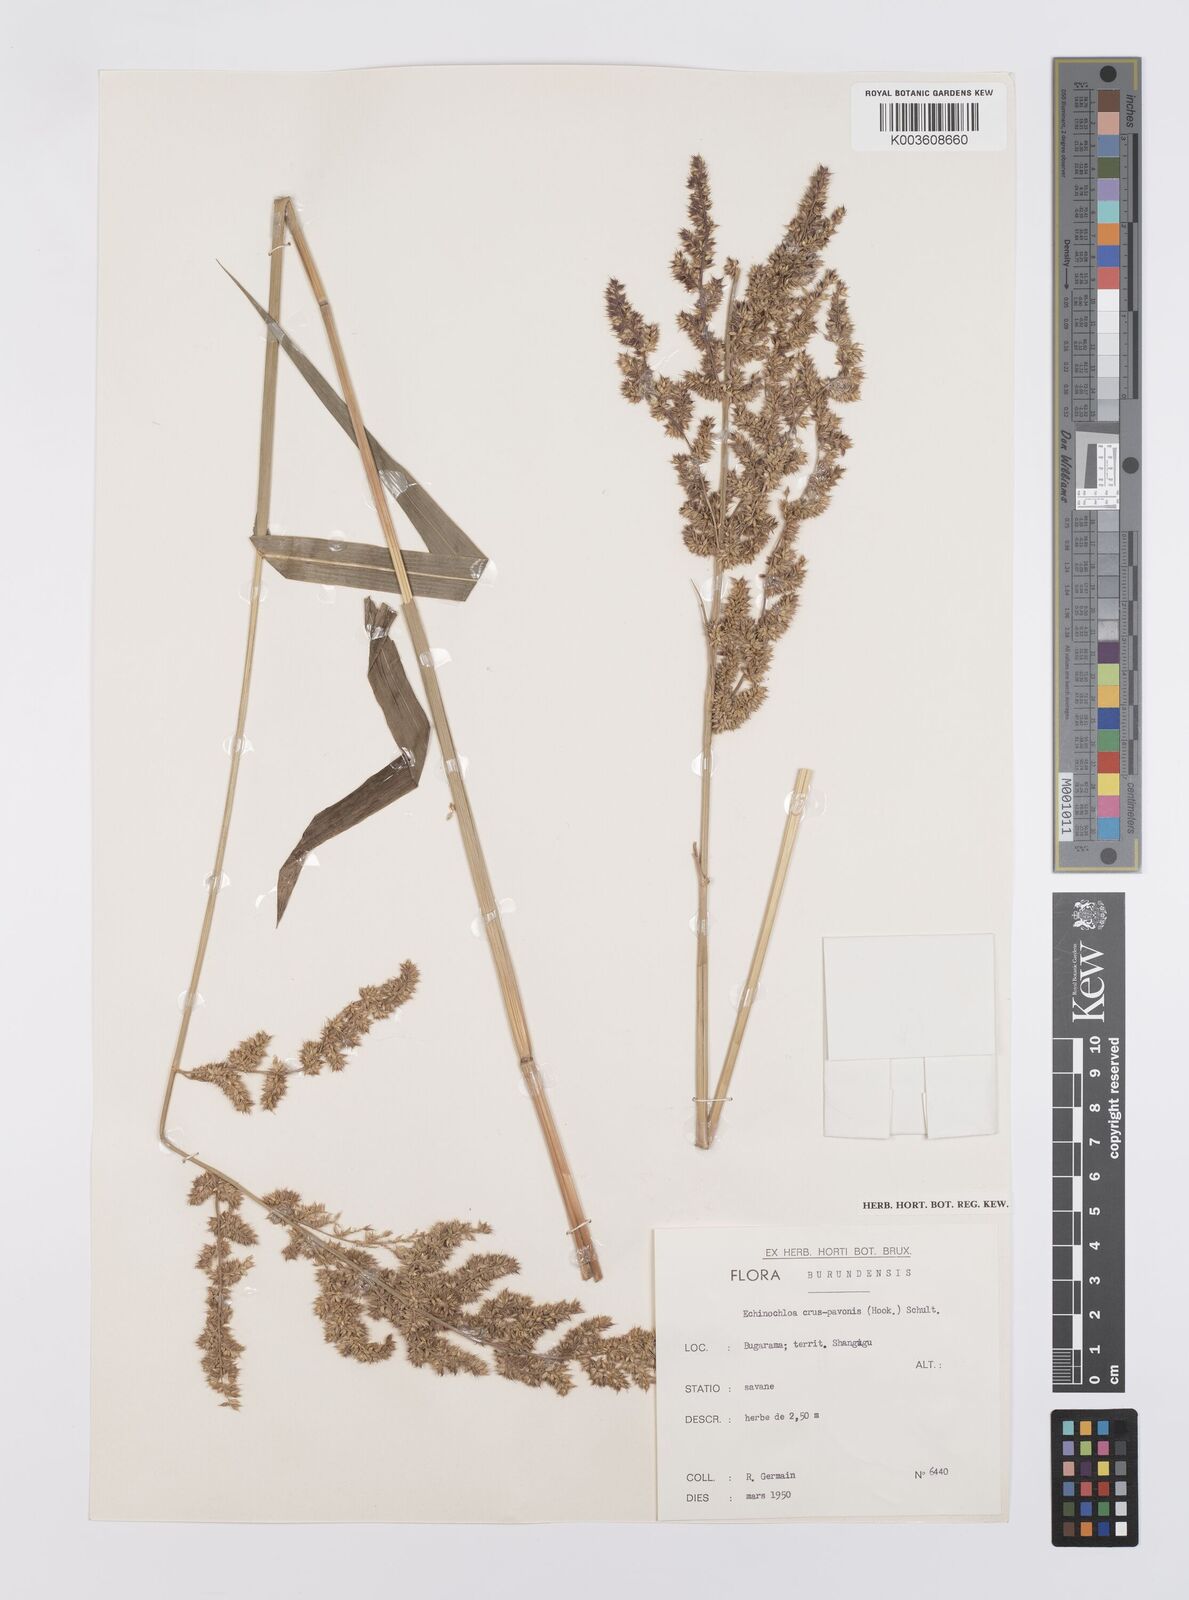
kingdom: Plantae
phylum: Tracheophyta
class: Liliopsida
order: Poales
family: Poaceae
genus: Echinochloa
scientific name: Echinochloa crus-pavonis
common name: Gulf cockspur grass
